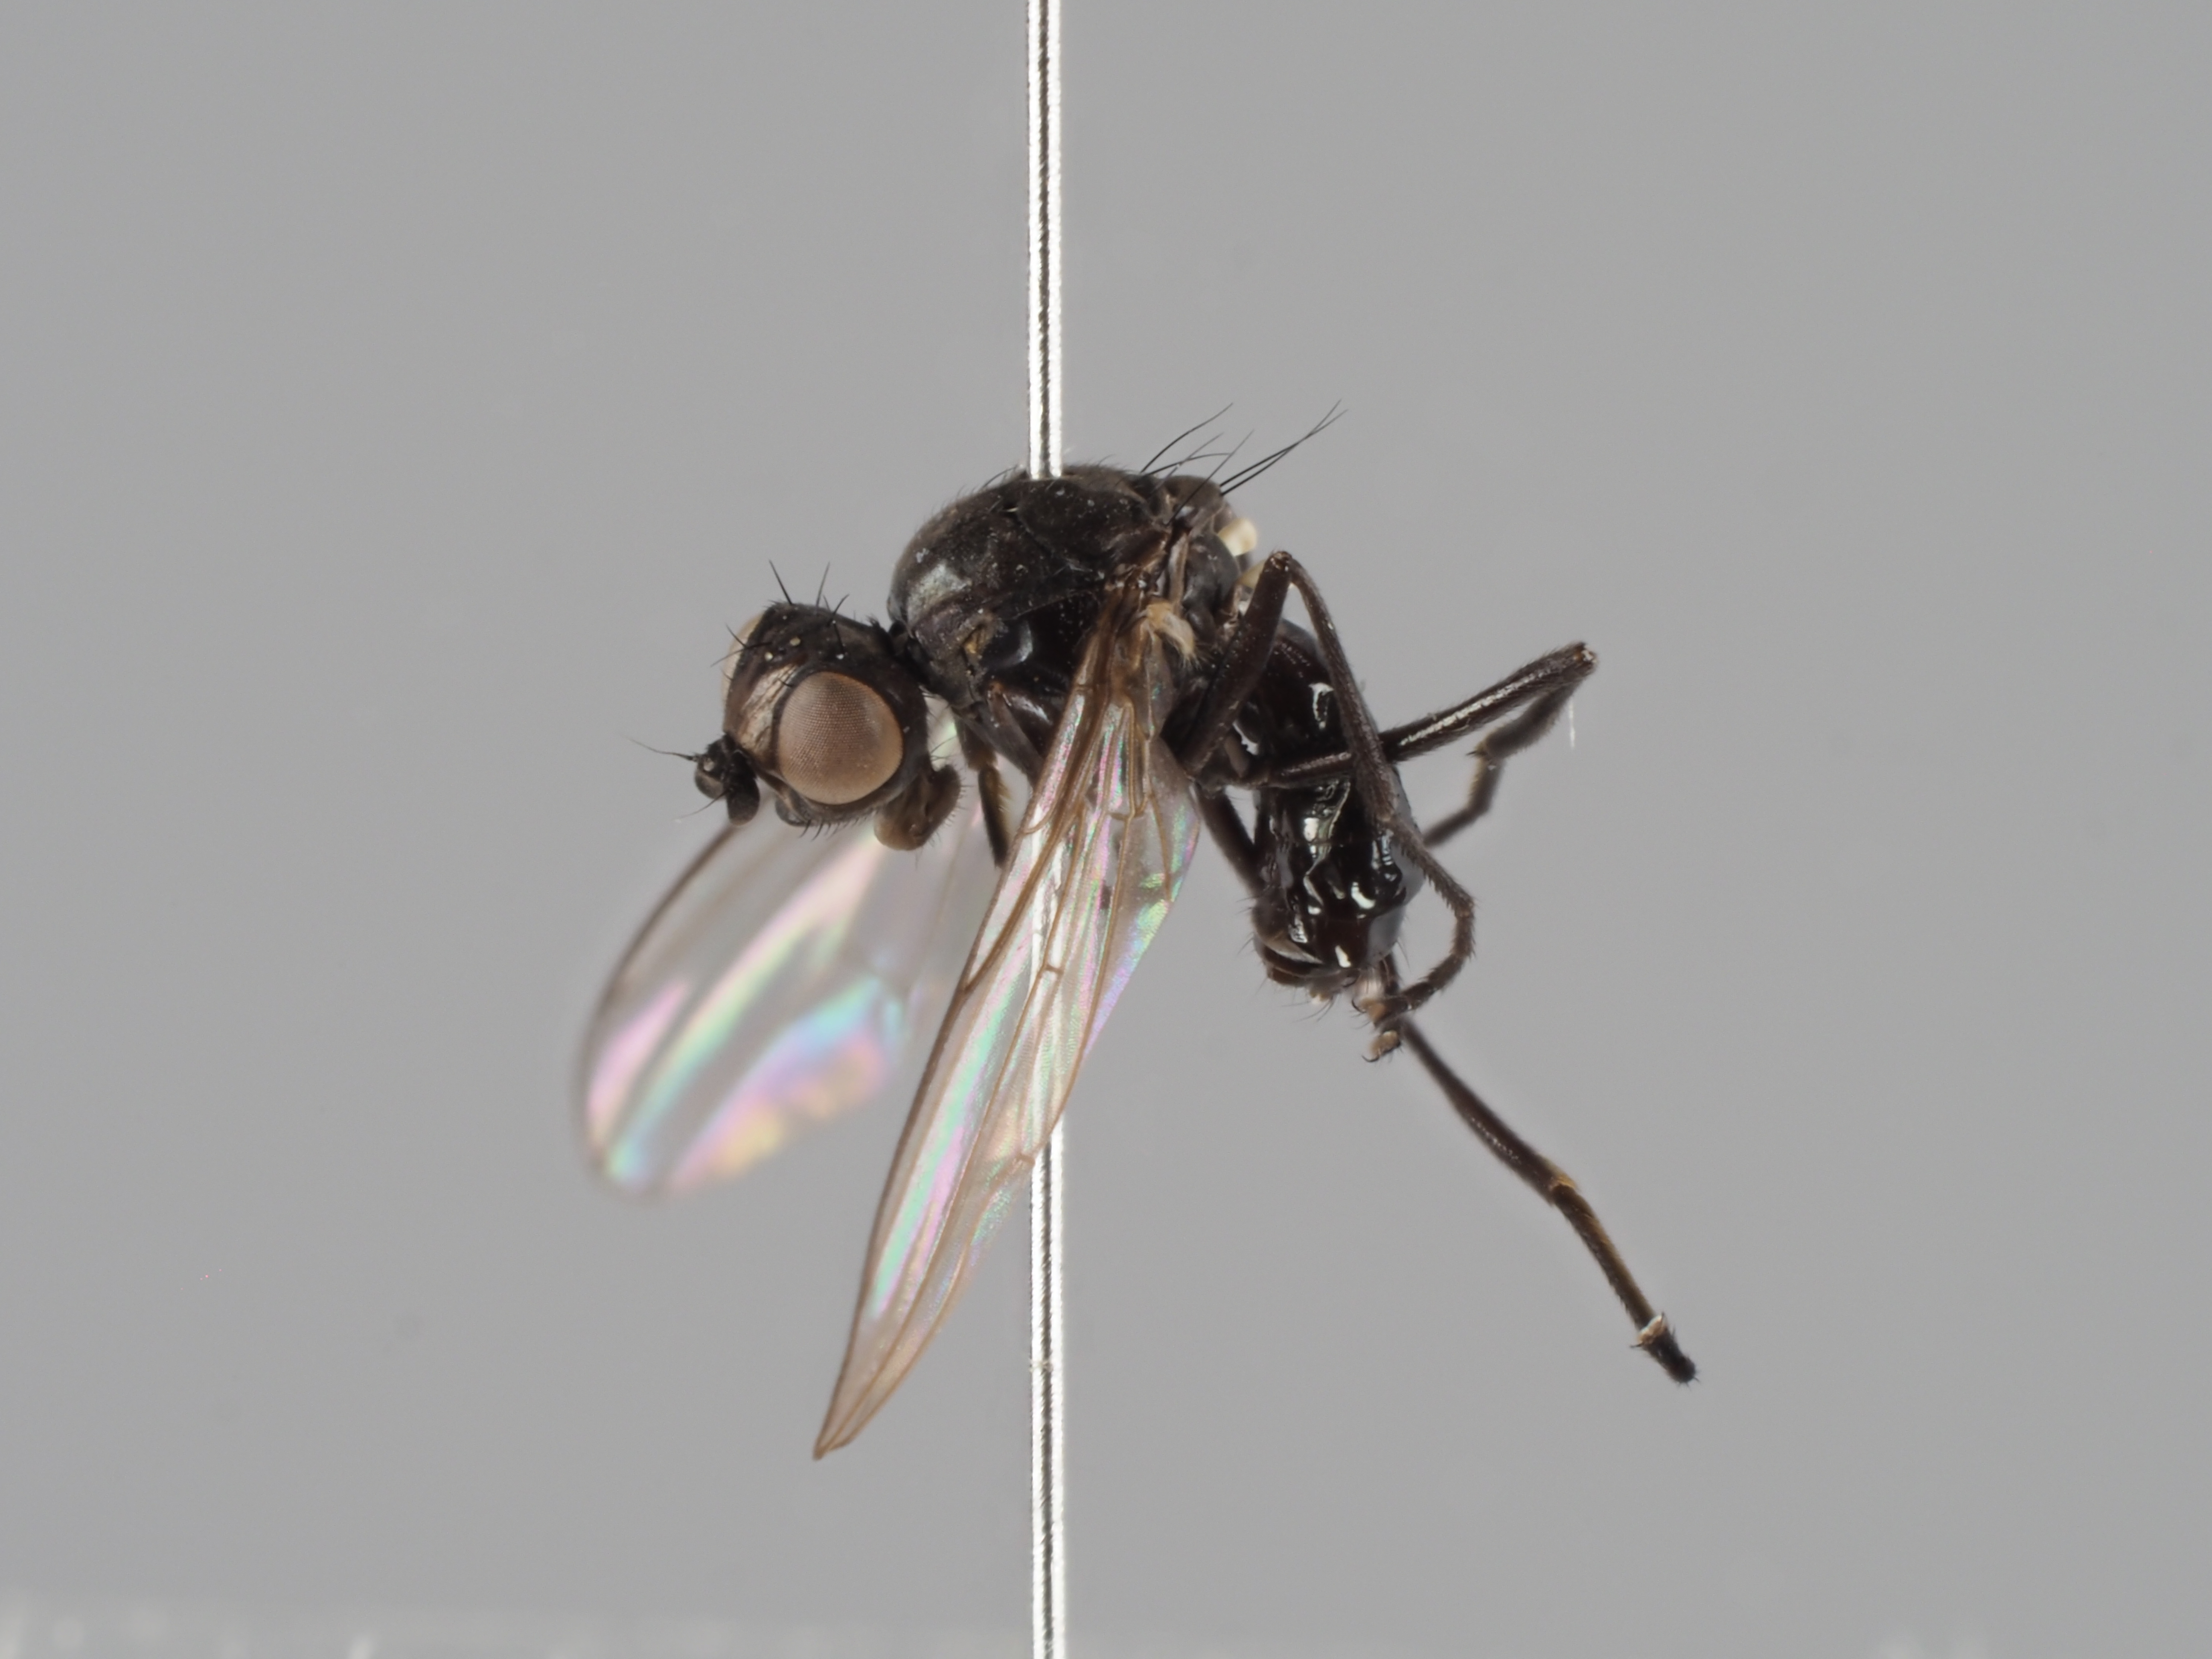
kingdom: Animalia
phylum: Arthropoda
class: Insecta
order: Diptera
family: Sepsidae
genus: Themira
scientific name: Themira biloba
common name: Sepsid fly
